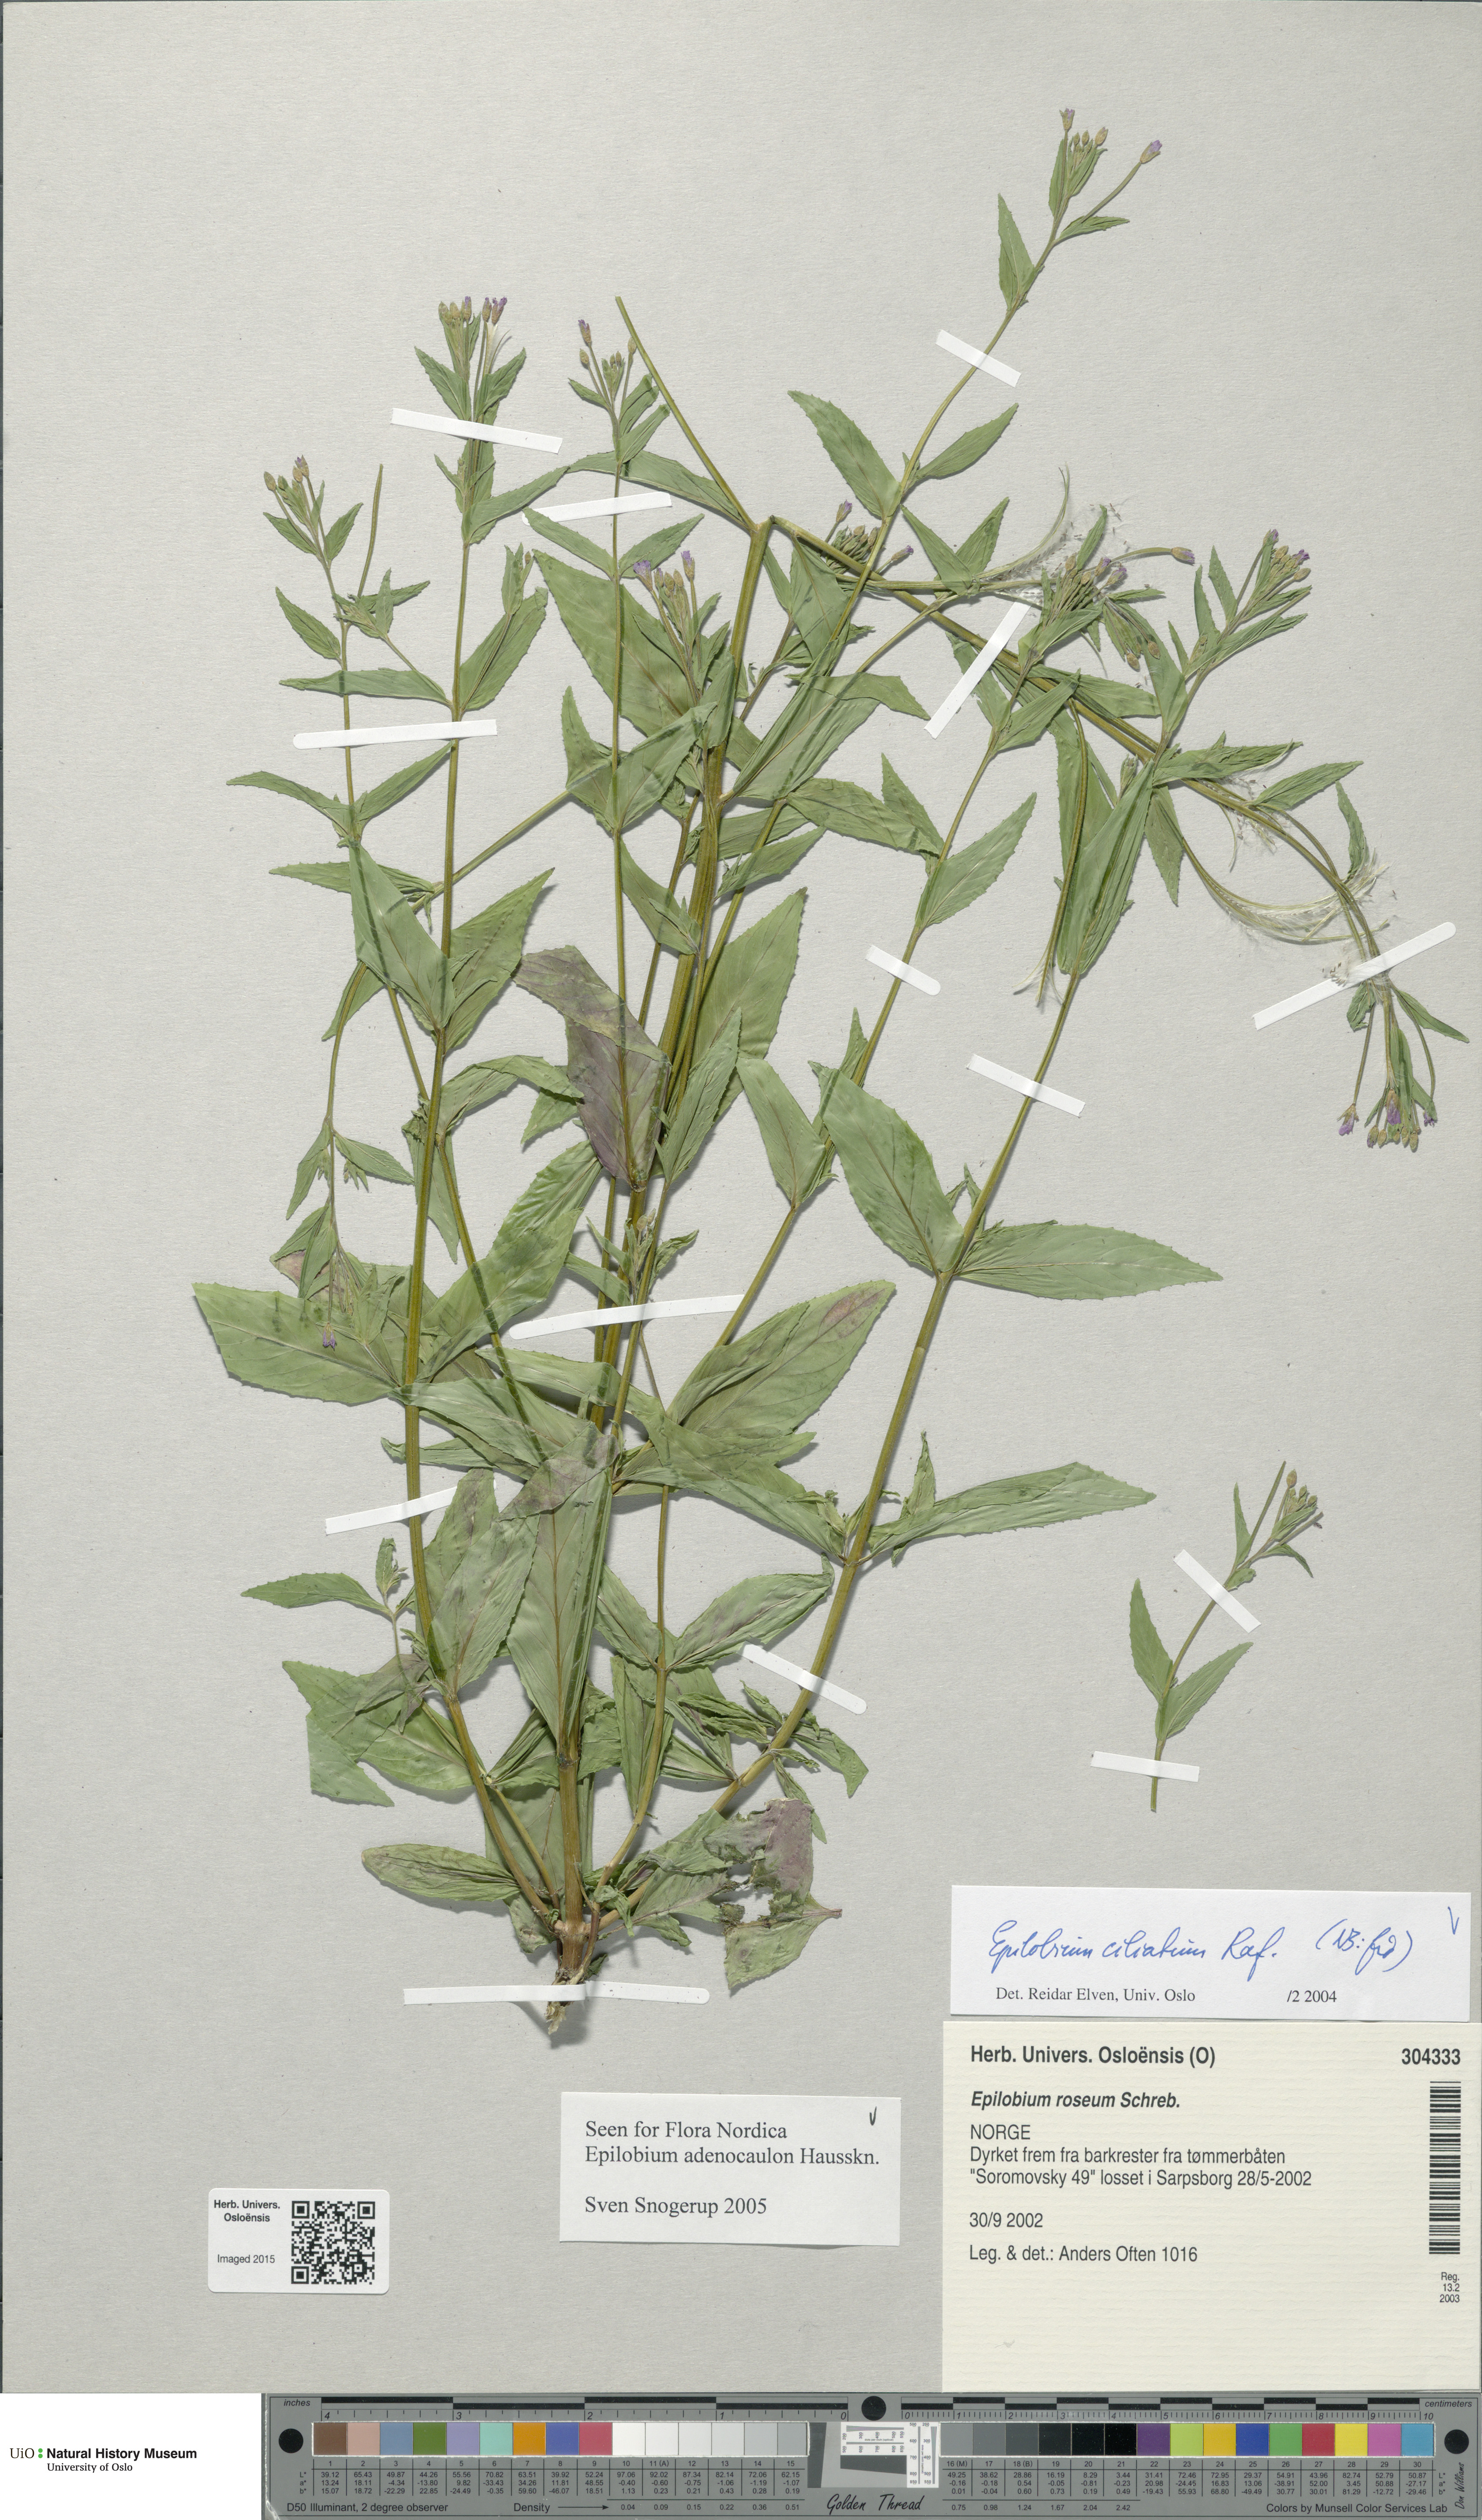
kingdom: Plantae
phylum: Tracheophyta
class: Magnoliopsida
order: Myrtales
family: Onagraceae
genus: Epilobium
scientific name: Epilobium ciliatum
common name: American willowherb
